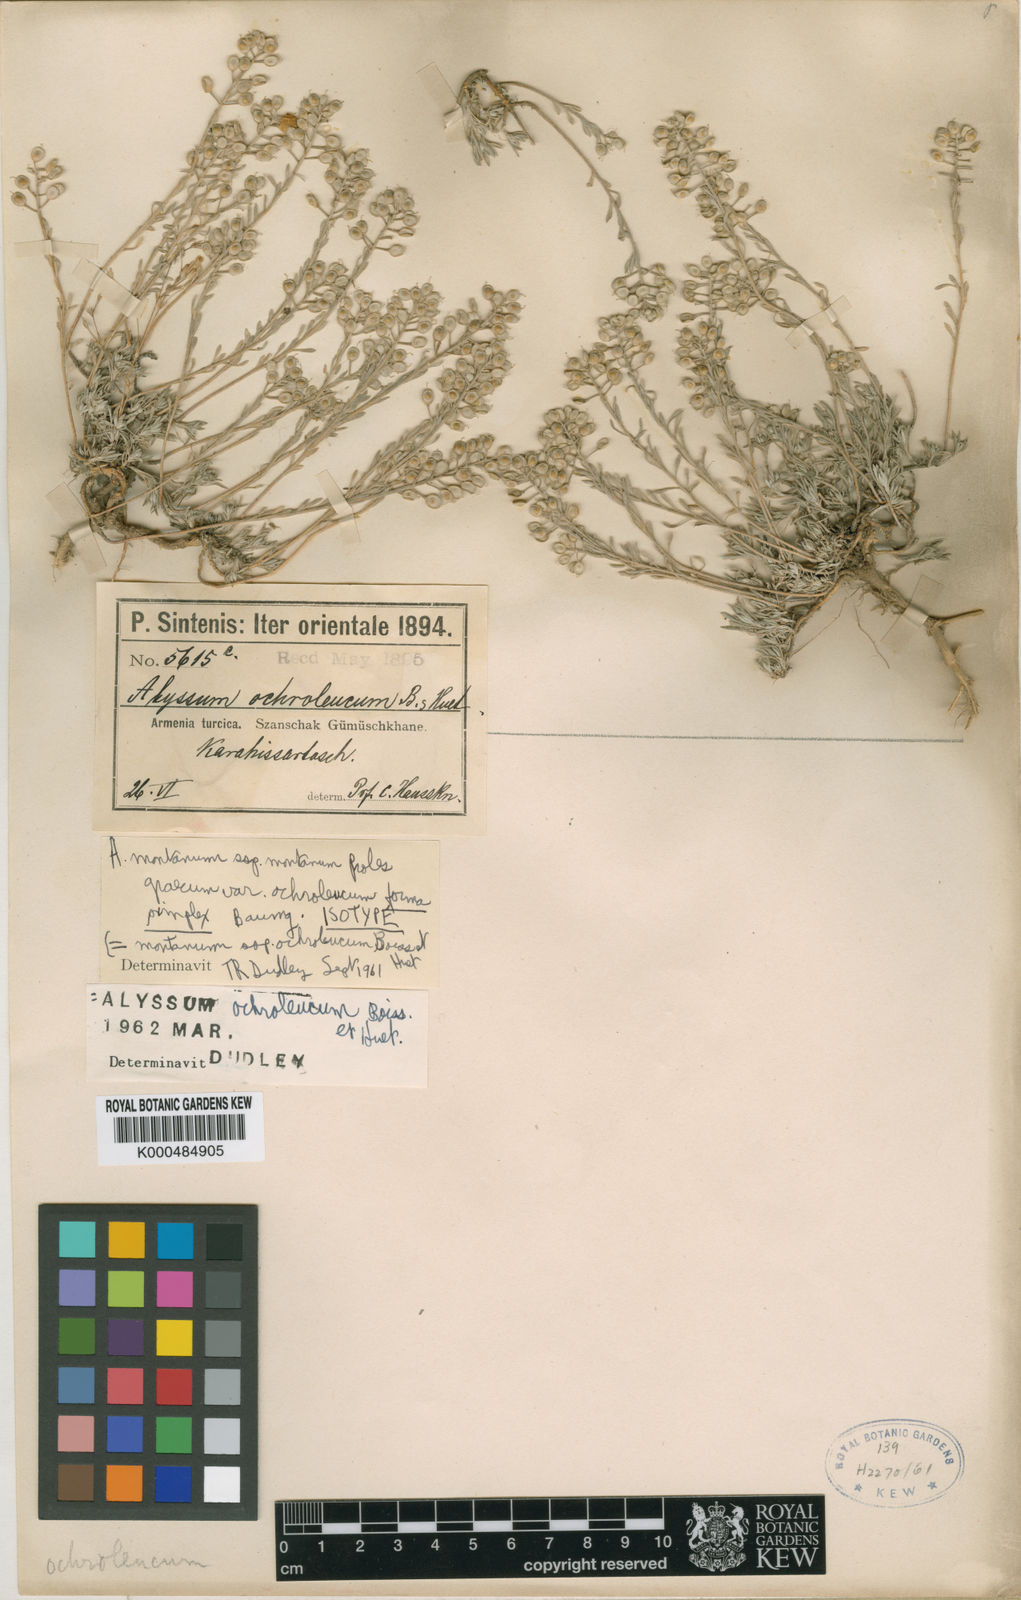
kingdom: Plantae
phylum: Tracheophyta
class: Magnoliopsida
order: Brassicales
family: Brassicaceae
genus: Alyssum
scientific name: Alyssum ochroleucum
